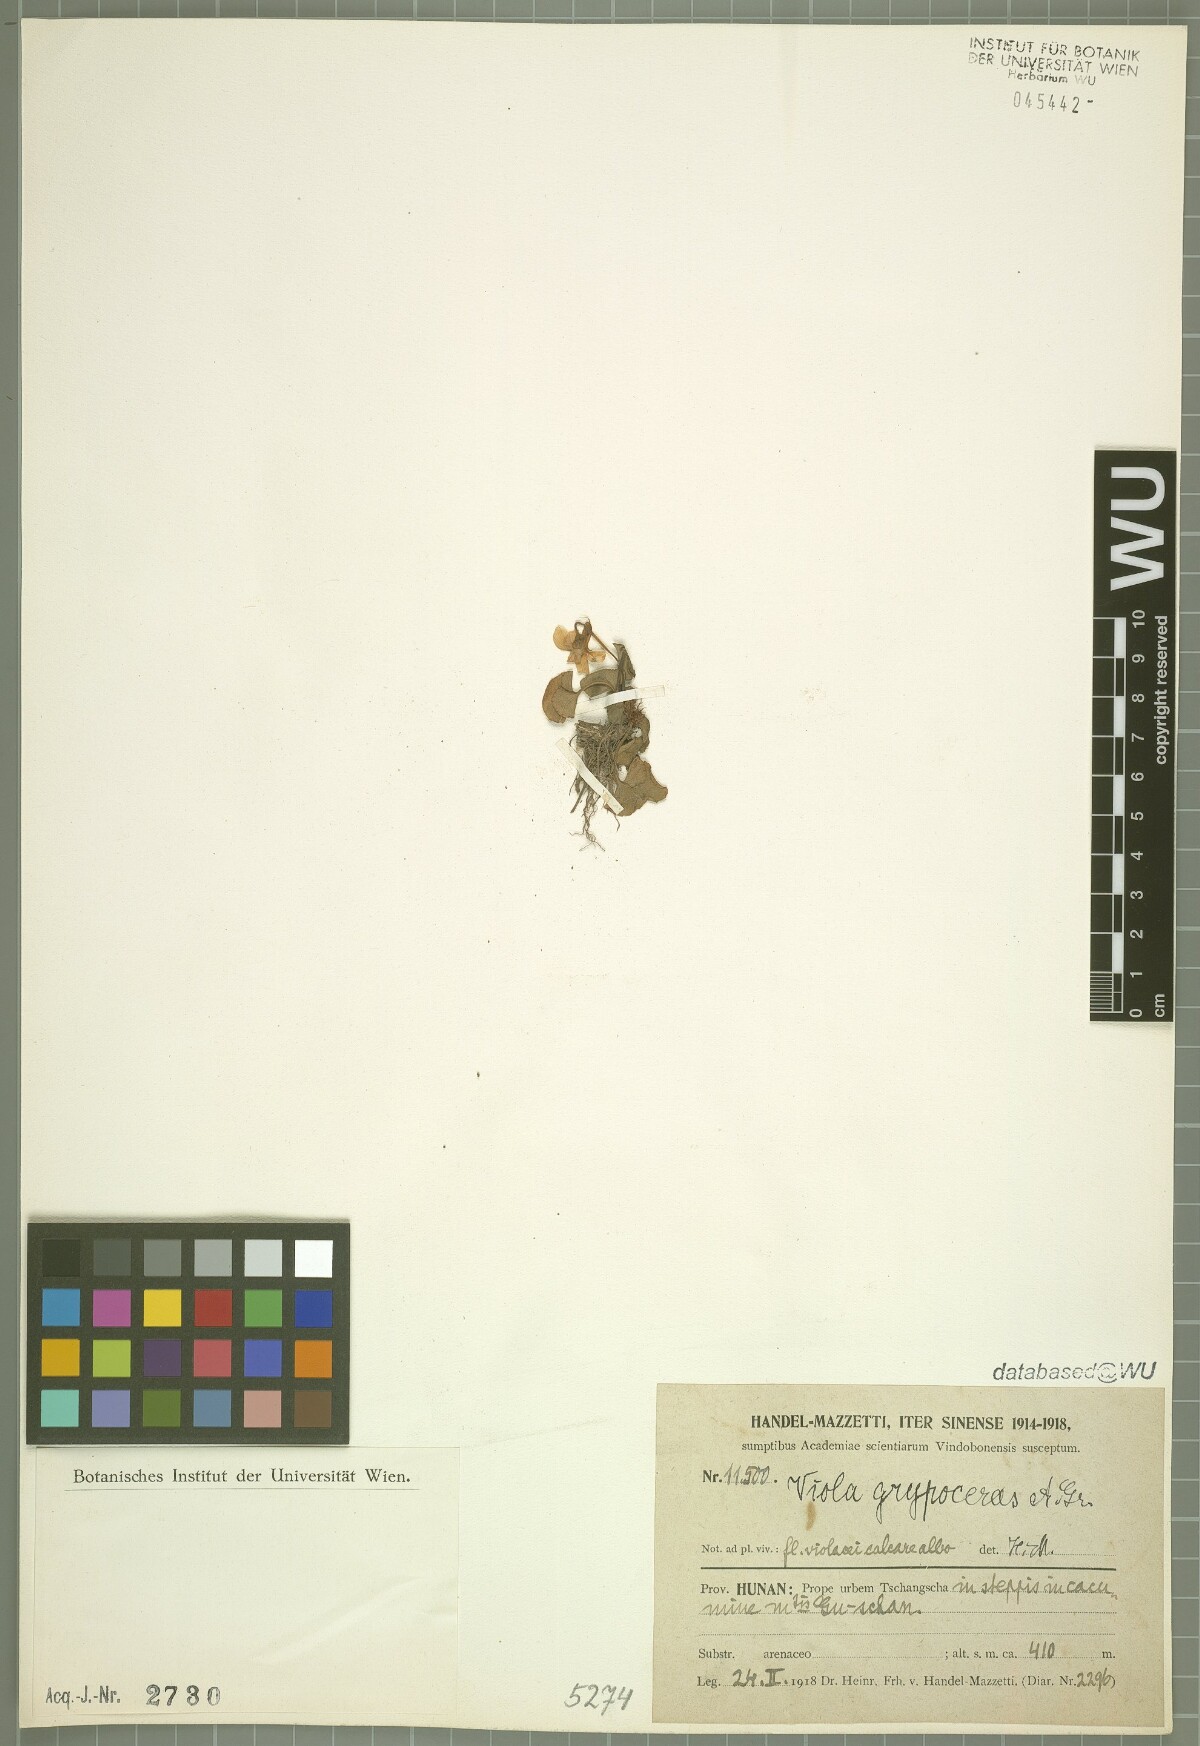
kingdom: Plantae
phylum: Tracheophyta
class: Magnoliopsida
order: Malpighiales
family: Violaceae
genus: Viola
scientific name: Viola grypoceras
